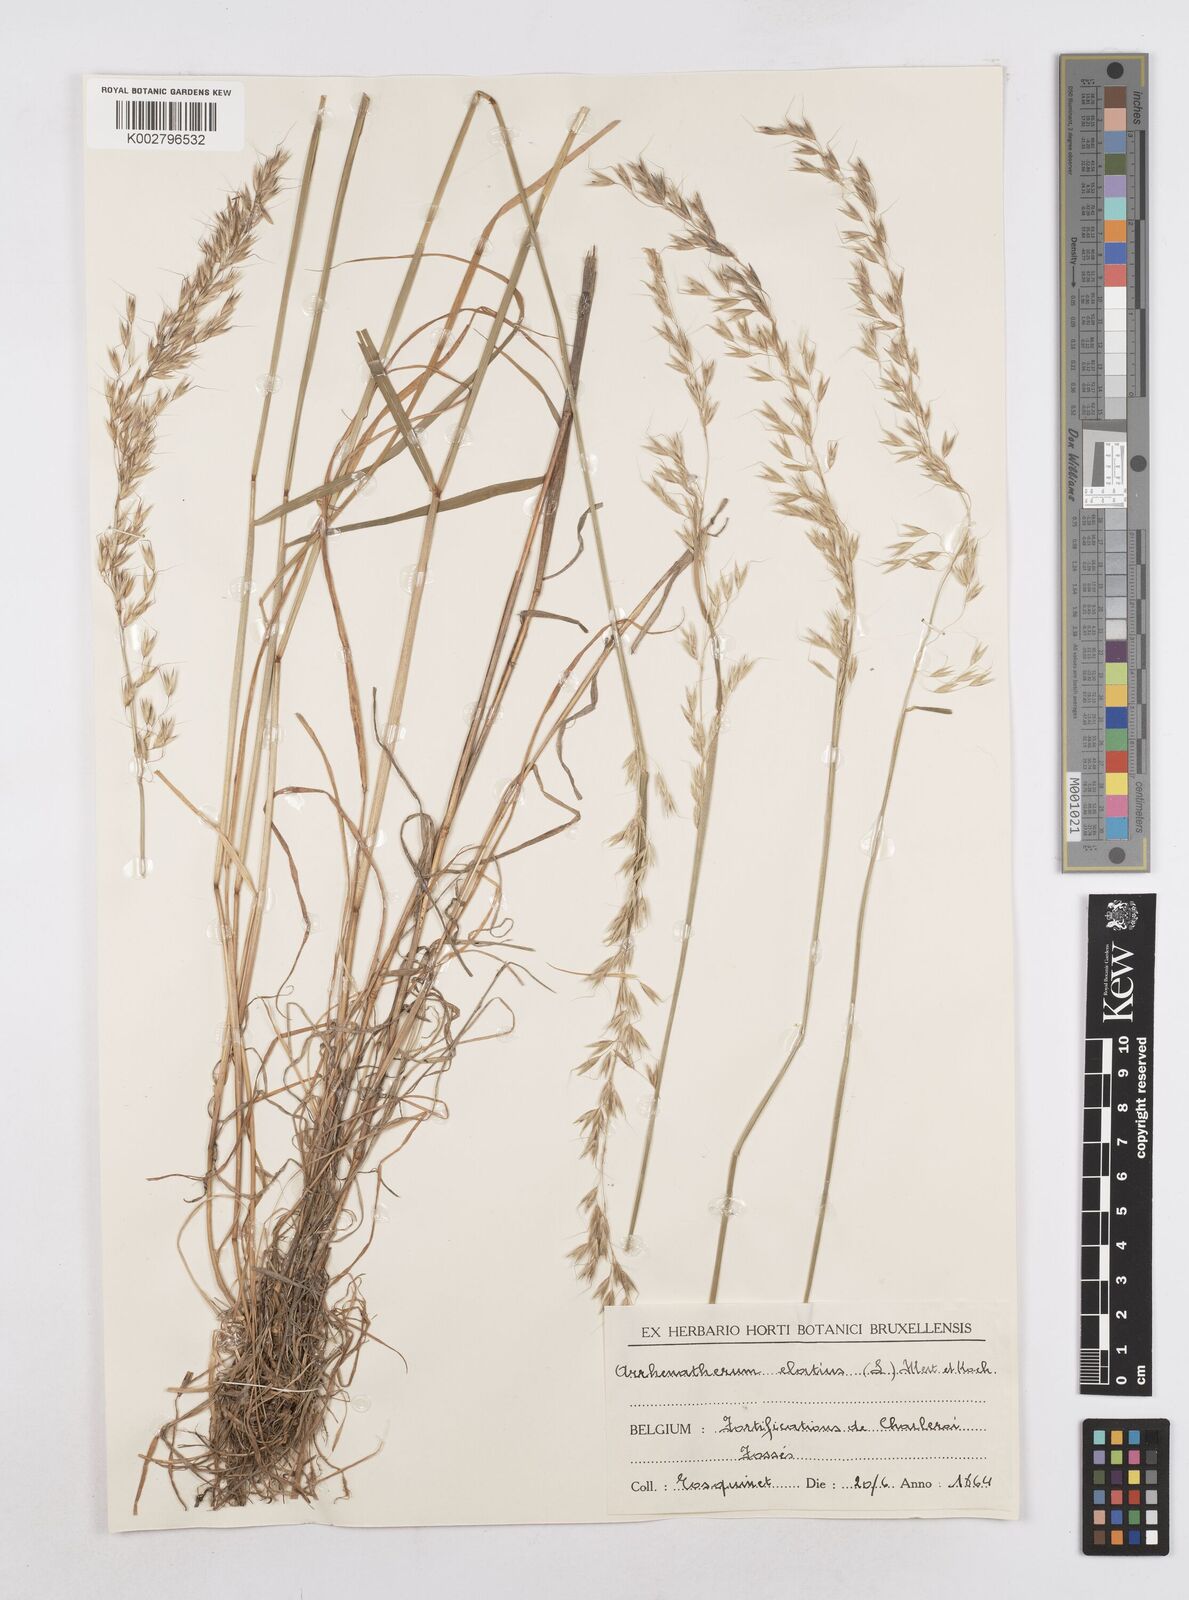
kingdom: Plantae
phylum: Tracheophyta
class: Liliopsida
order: Poales
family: Poaceae
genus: Arrhenatherum
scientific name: Arrhenatherum elatius
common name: Tall oatgrass
